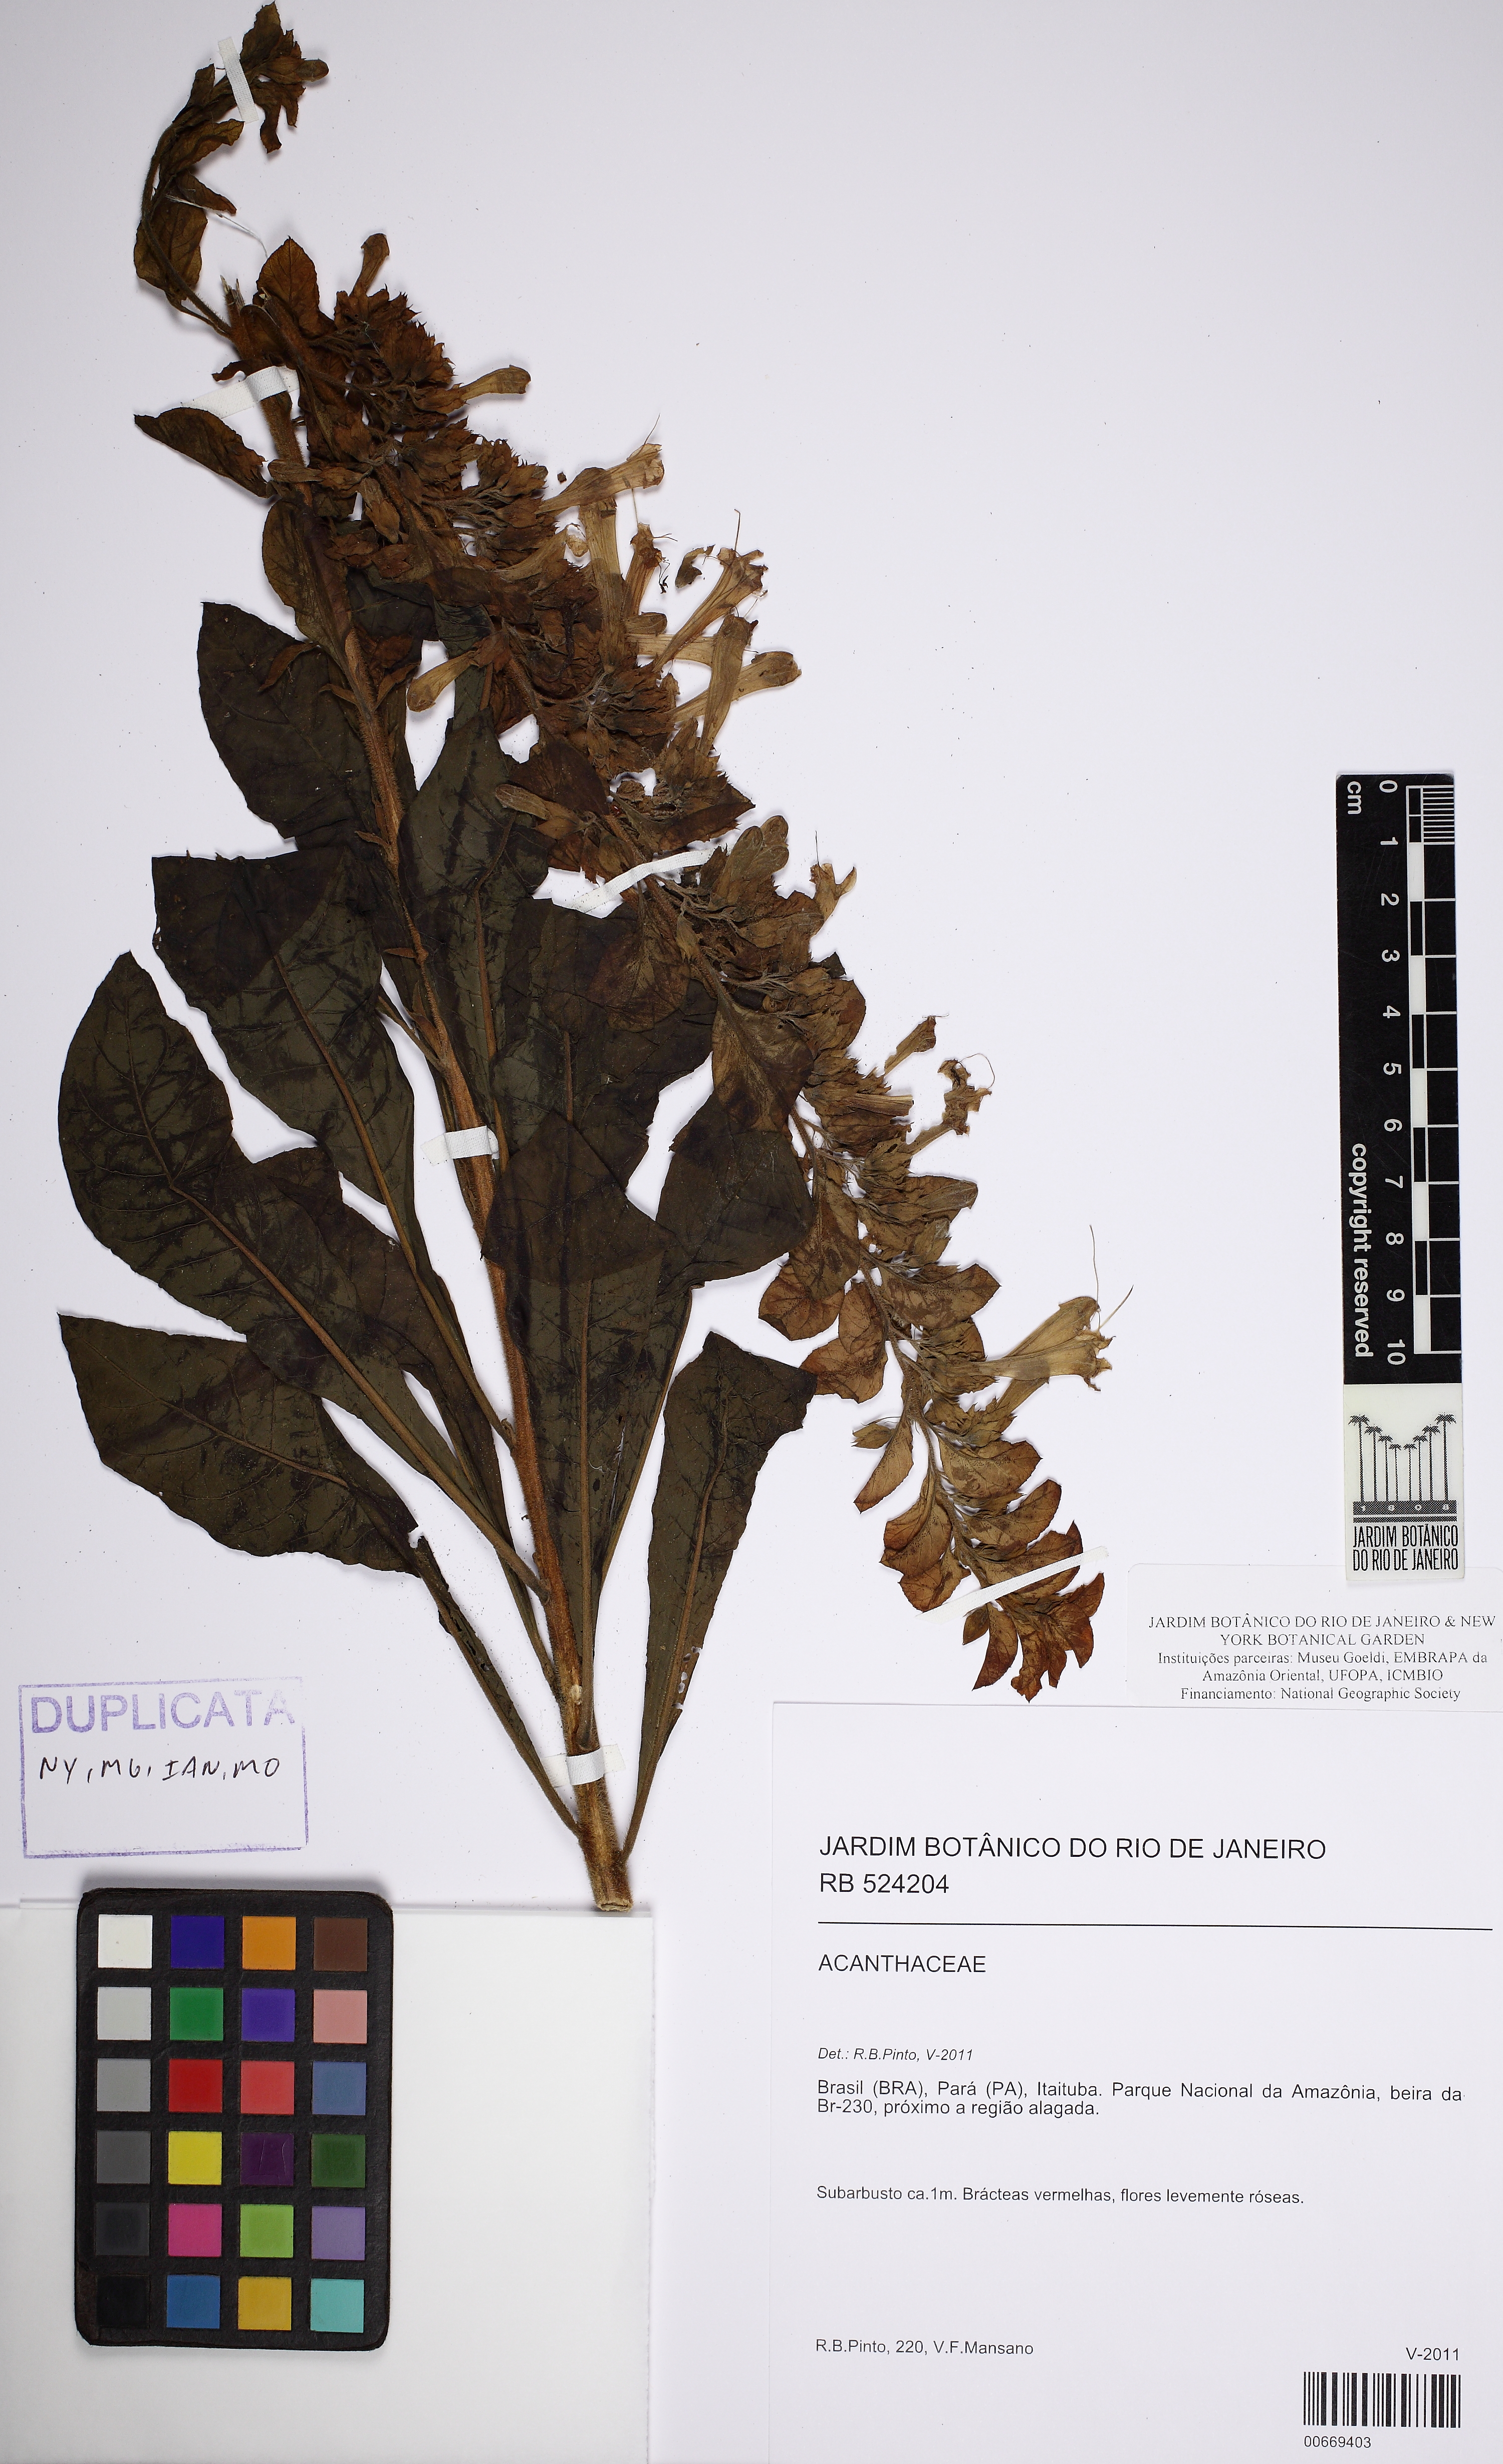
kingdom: Plantae
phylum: Tracheophyta
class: Magnoliopsida
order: Lamiales
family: Lamiaceae
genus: Amasonia
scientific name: Amasonia
